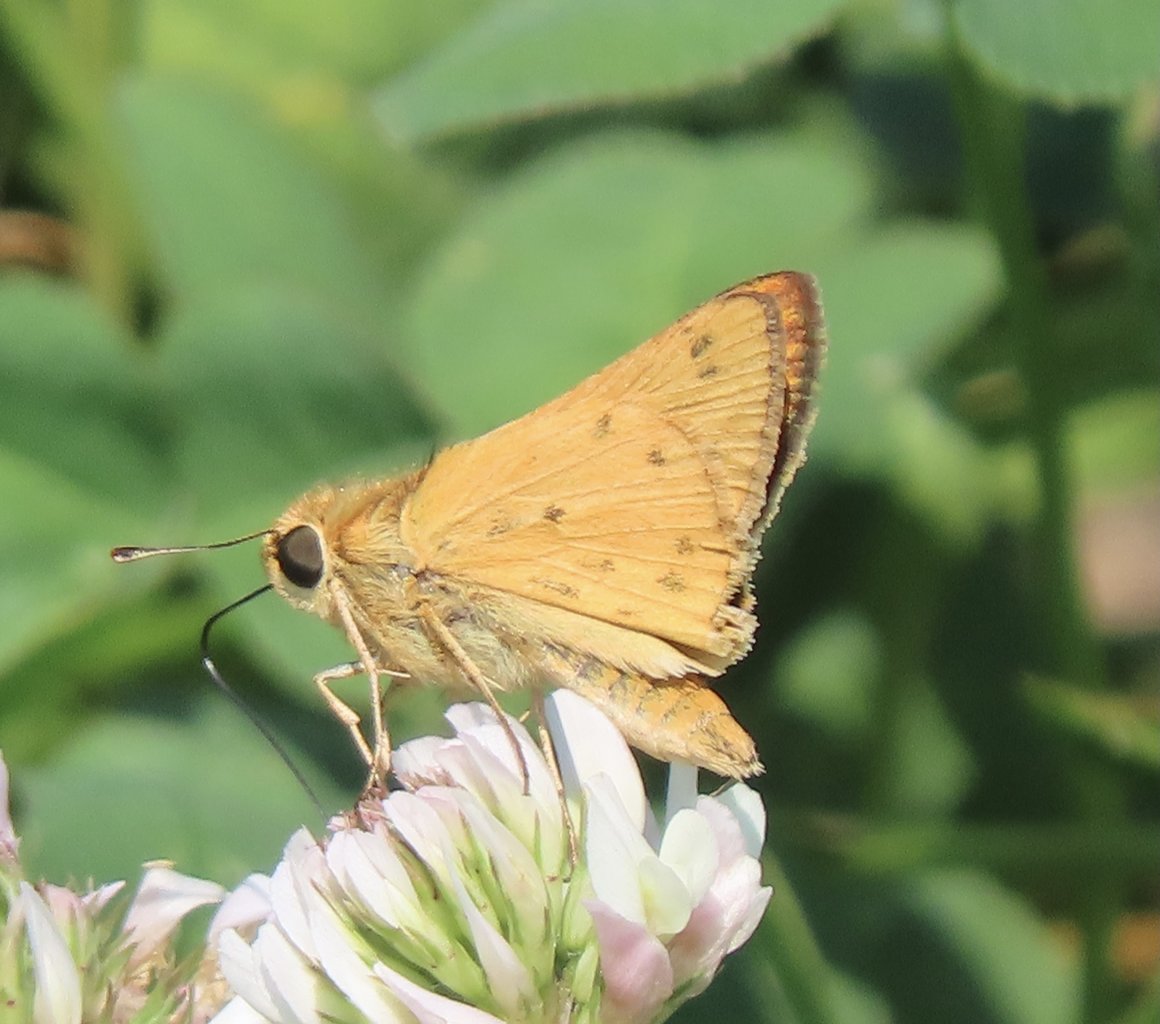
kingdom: Animalia
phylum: Arthropoda
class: Insecta
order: Lepidoptera
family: Hesperiidae
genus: Hylephila
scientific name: Hylephila phyleus
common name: Fiery Skipper
